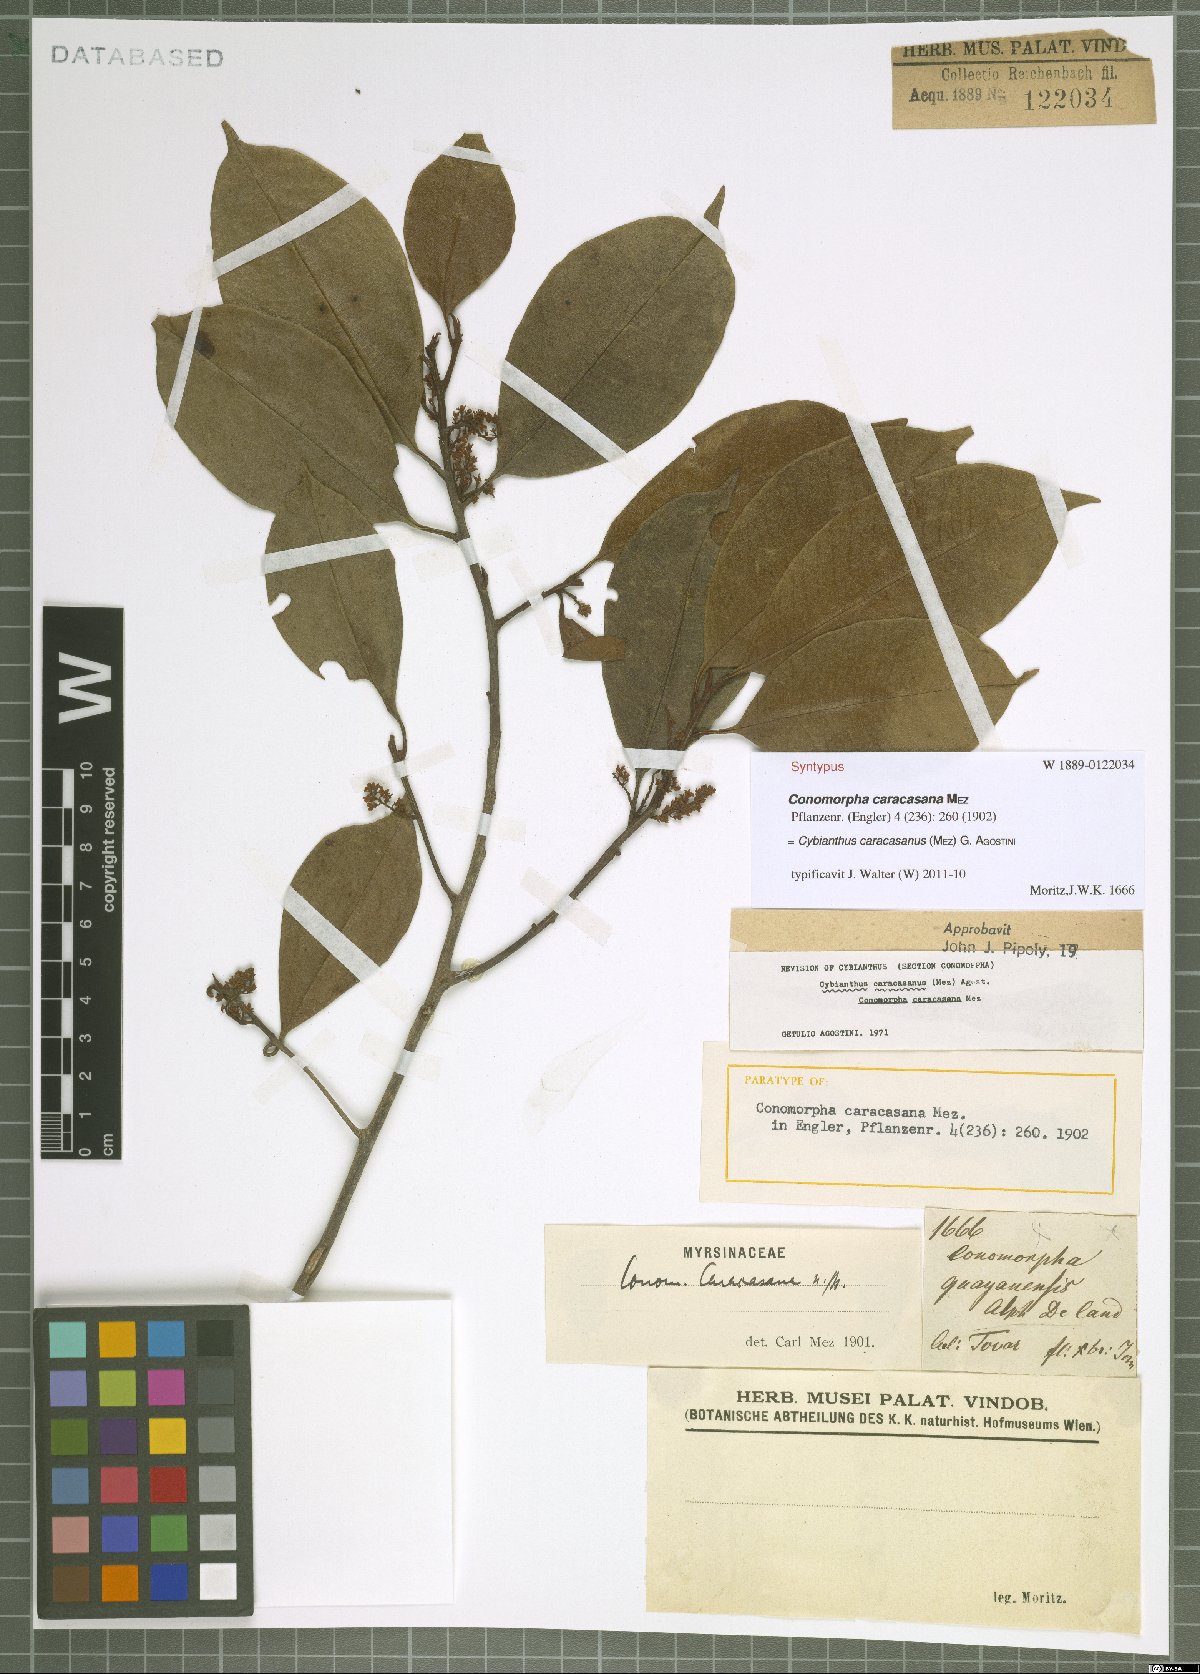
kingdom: Plantae
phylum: Tracheophyta
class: Magnoliopsida
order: Ericales
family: Primulaceae
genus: Cybianthus
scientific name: Cybianthus caracasanus
